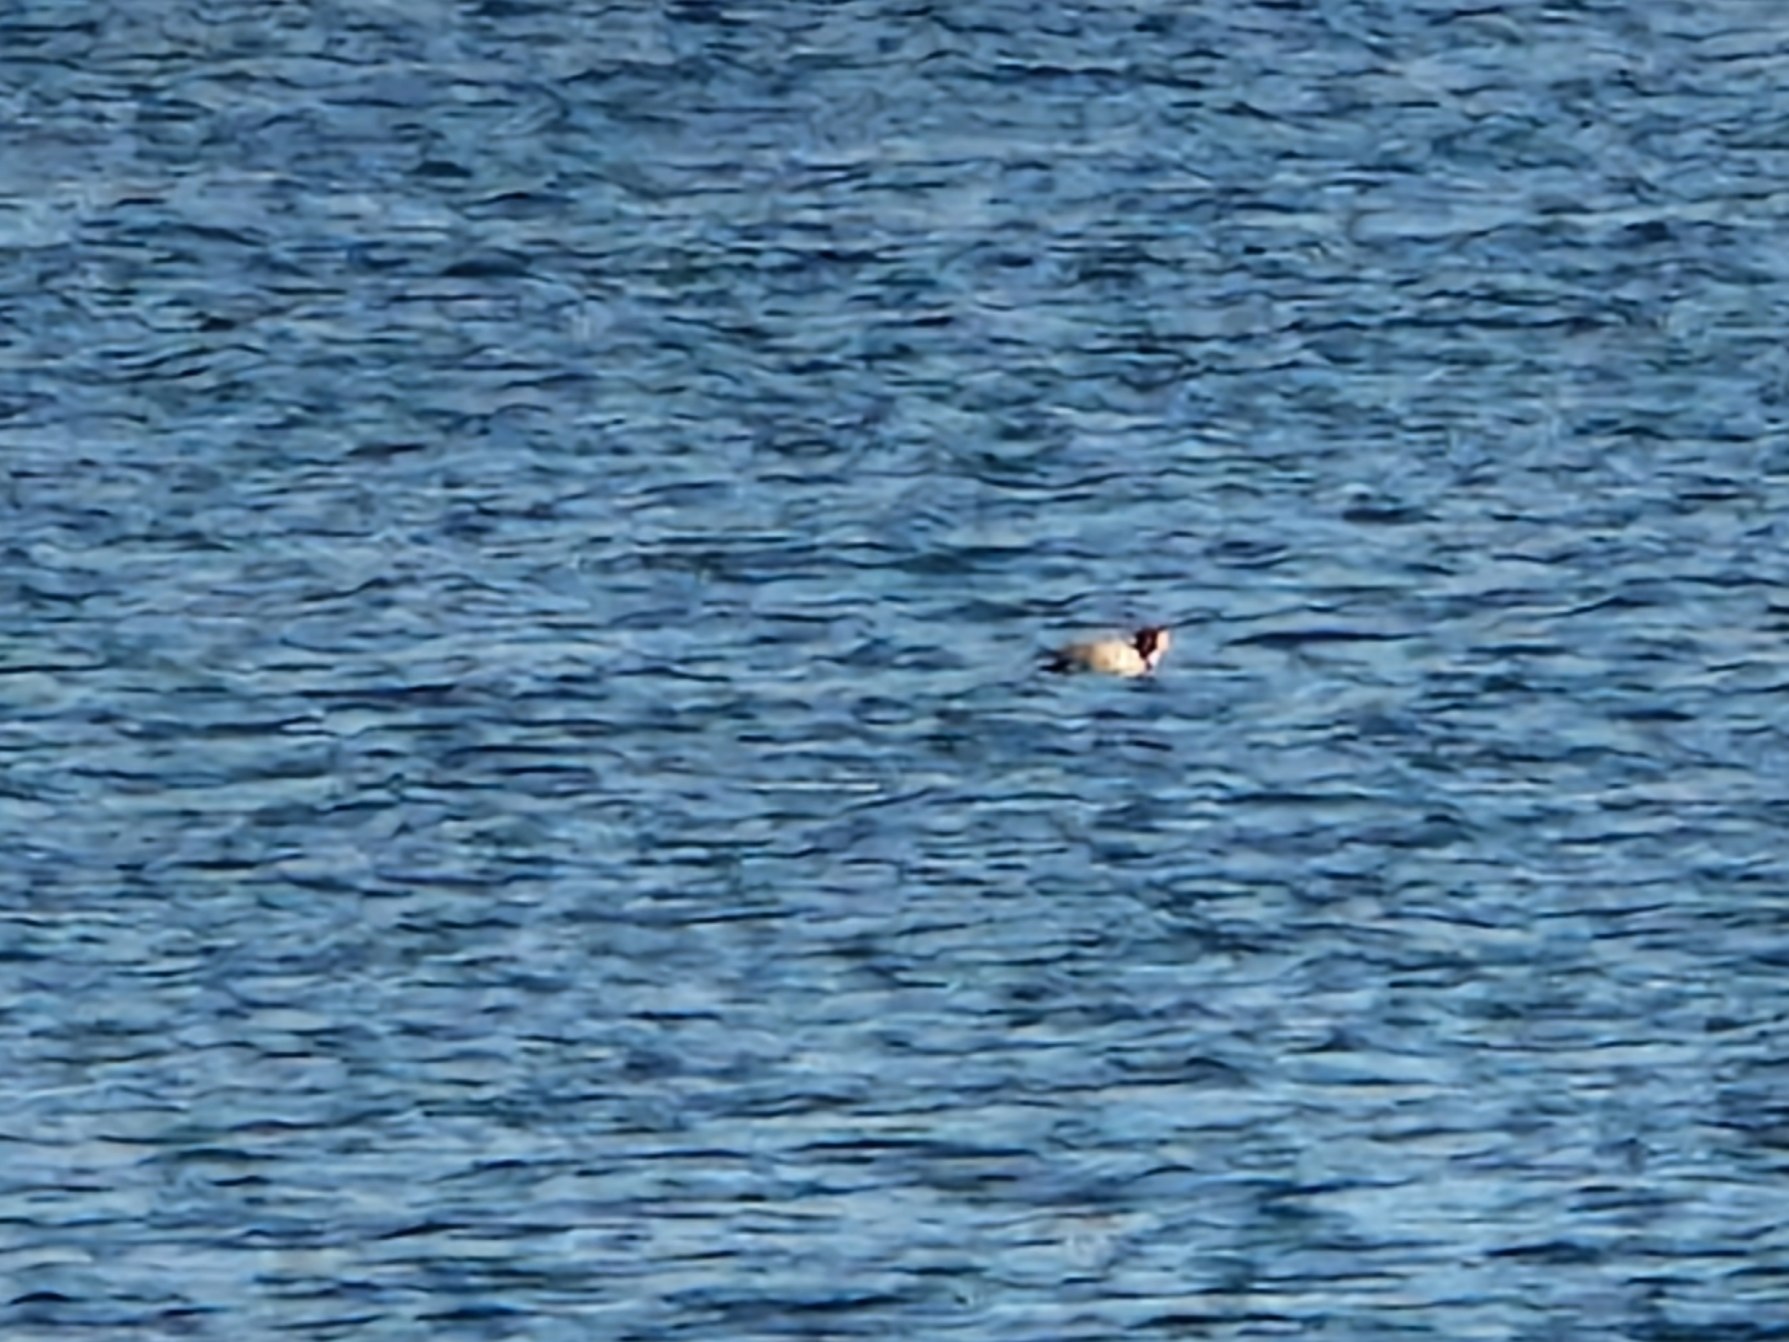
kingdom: Animalia
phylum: Chordata
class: Aves
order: Anseriformes
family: Anatidae
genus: Mareca
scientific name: Mareca penelope
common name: Pibeand
